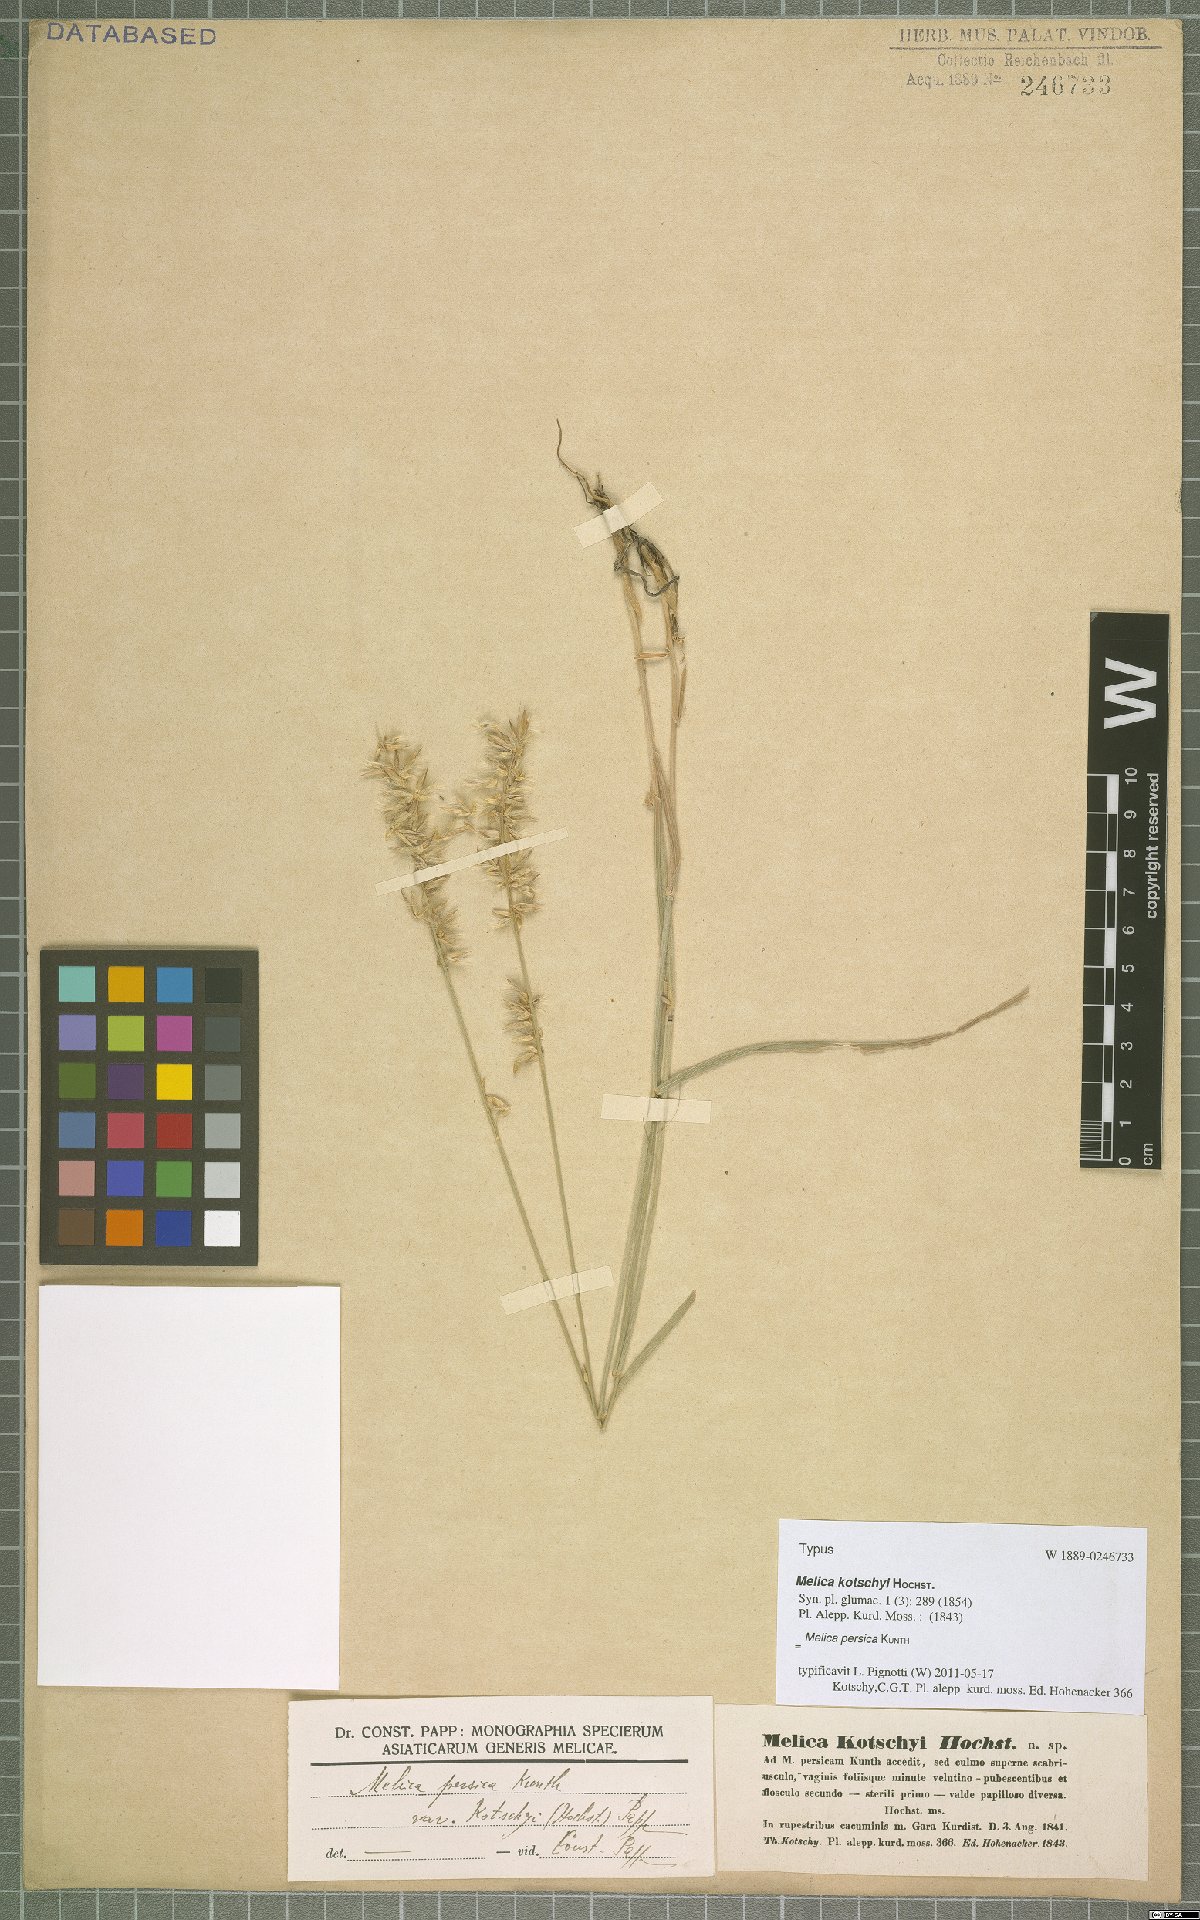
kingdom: Plantae
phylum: Tracheophyta
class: Liliopsida
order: Poales
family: Poaceae
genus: Melica
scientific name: Melica persica
